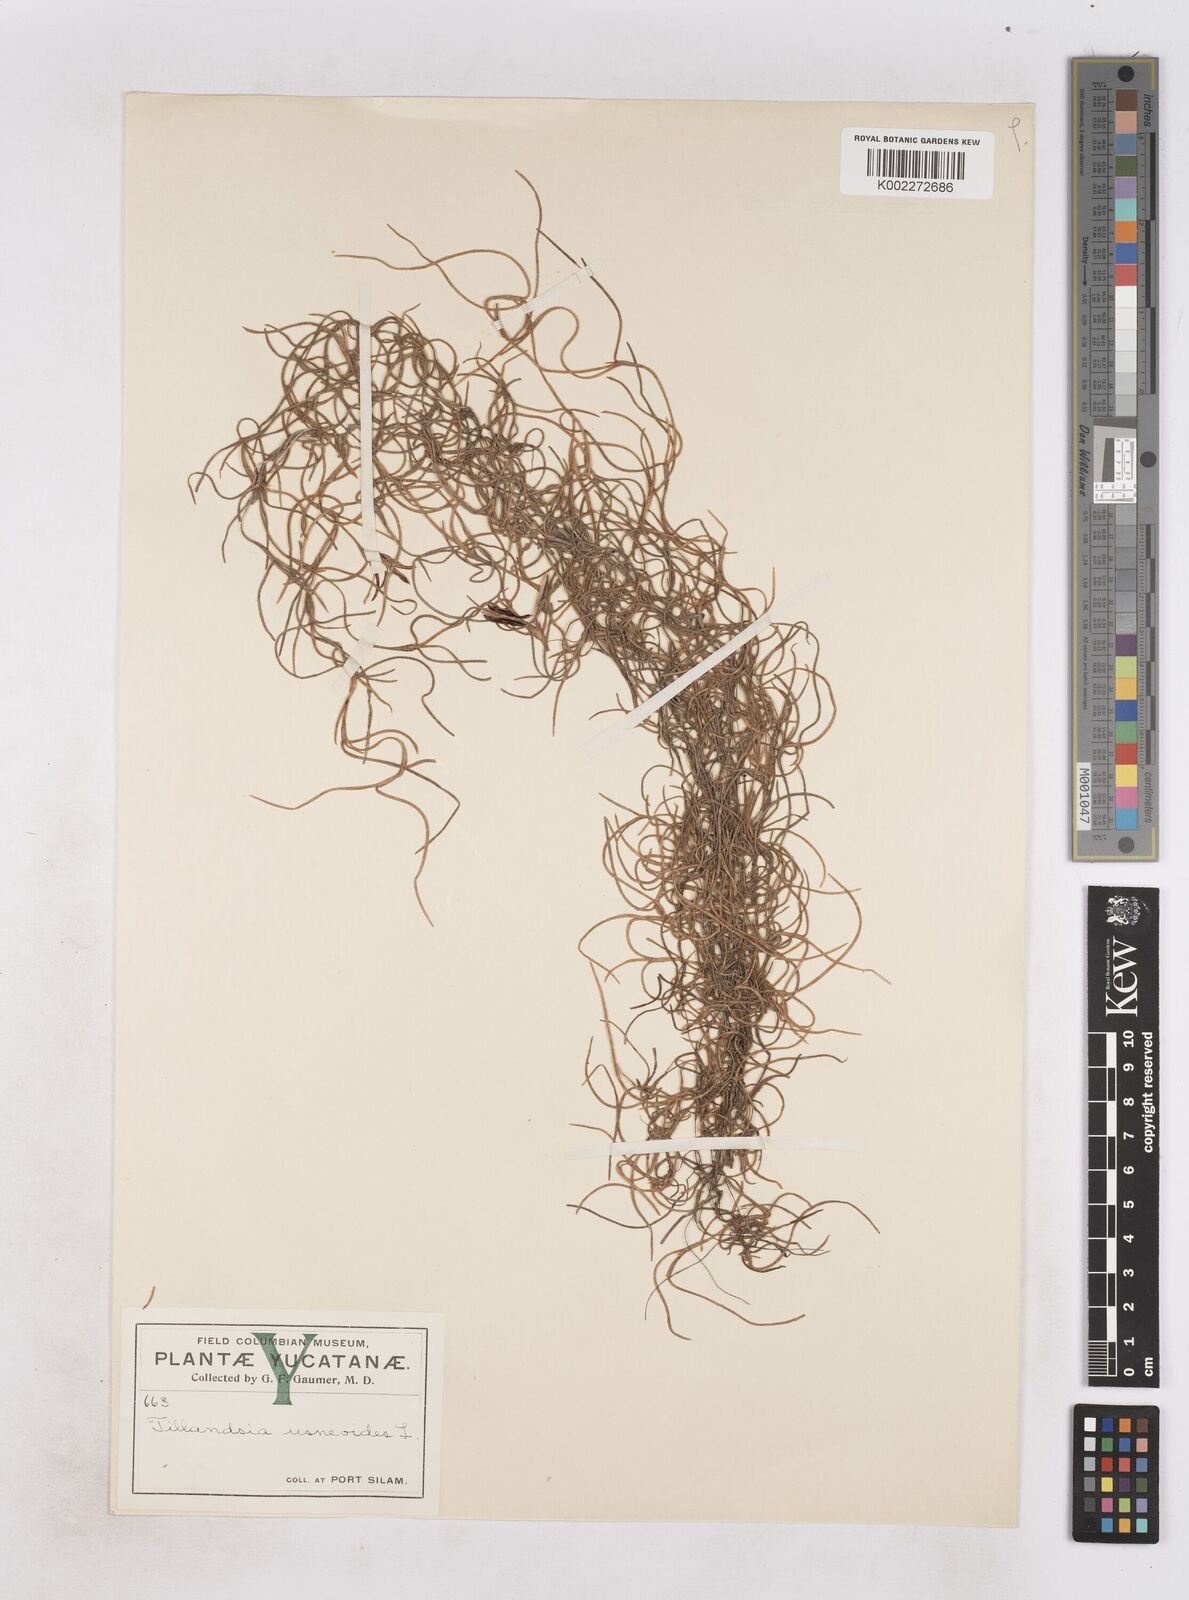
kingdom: Plantae
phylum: Tracheophyta
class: Liliopsida
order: Poales
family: Bromeliaceae
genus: Tillandsia
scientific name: Tillandsia usneoides
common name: Spanish moss
